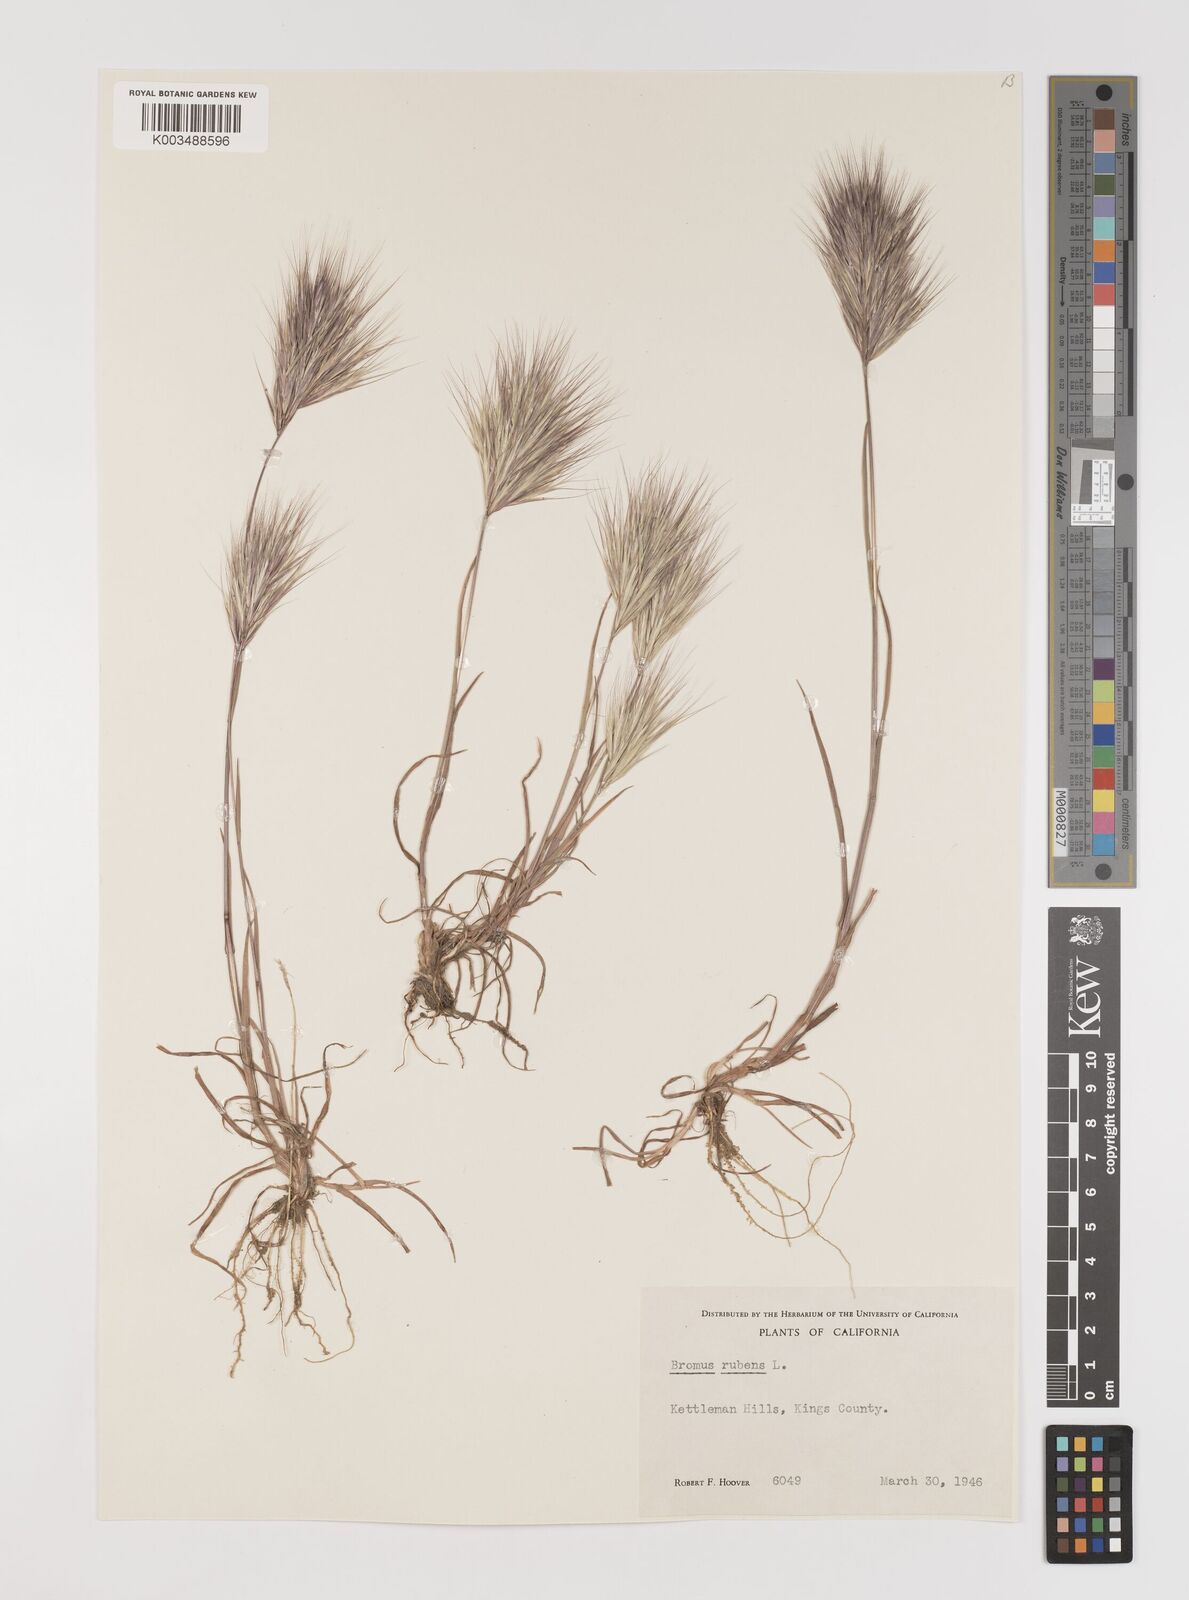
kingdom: Plantae
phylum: Tracheophyta
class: Liliopsida
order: Poales
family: Poaceae
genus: Bromus
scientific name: Bromus rubens
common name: Red brome
